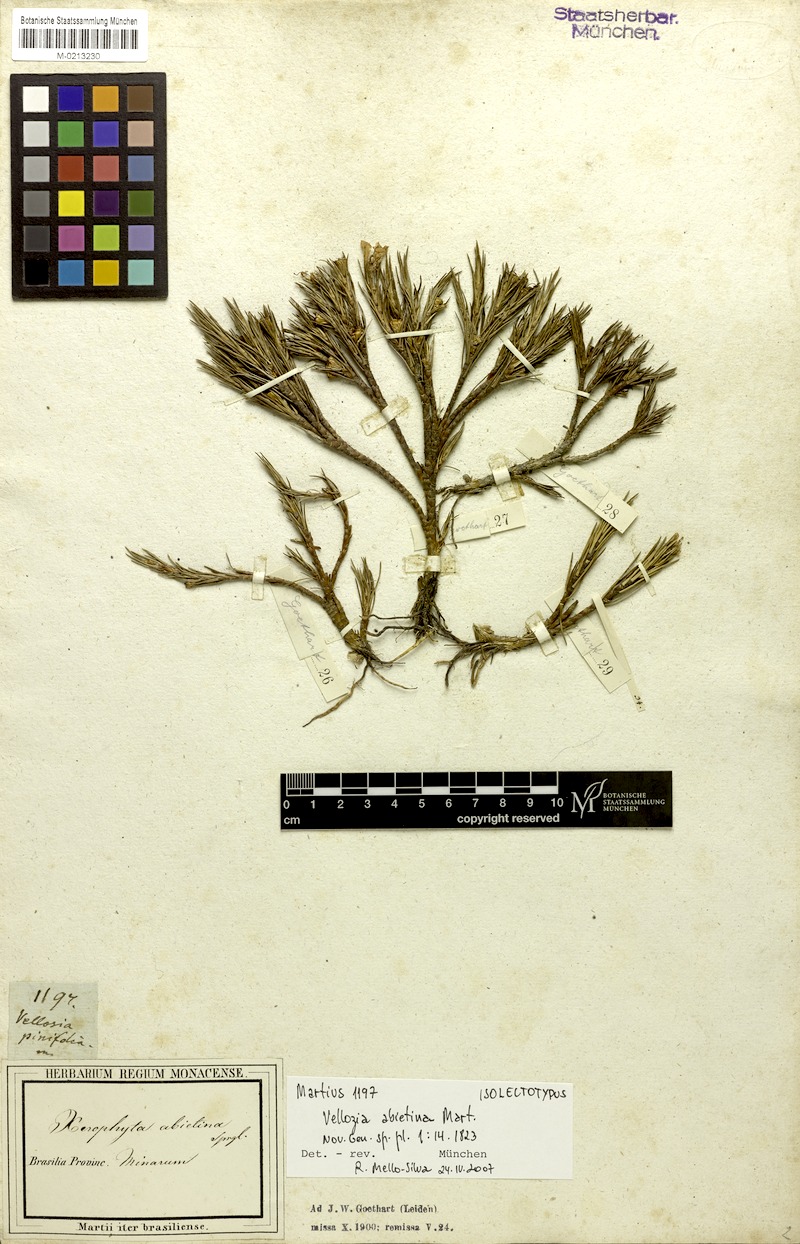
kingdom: Plantae
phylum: Tracheophyta
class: Liliopsida
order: Pandanales
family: Velloziaceae
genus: Vellozia
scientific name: Vellozia abietina
